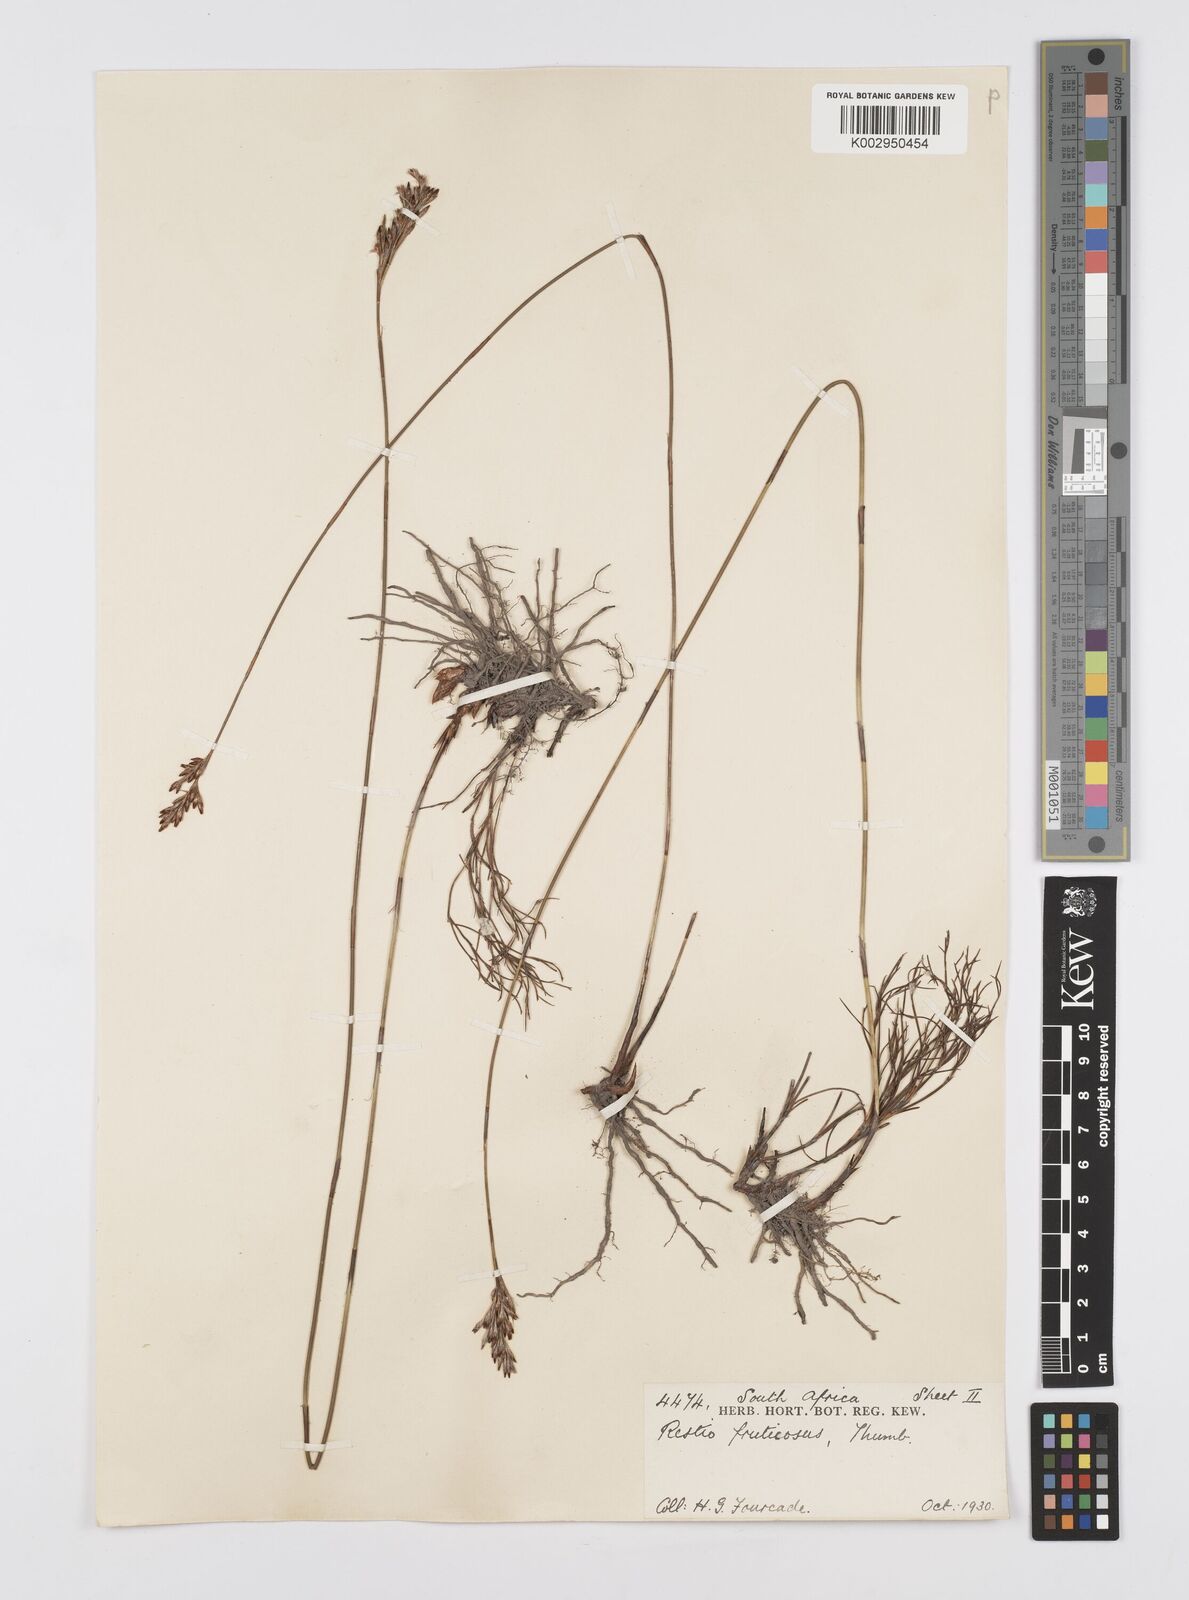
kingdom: Plantae
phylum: Tracheophyta
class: Liliopsida
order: Poales
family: Restionaceae
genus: Rhodocoma
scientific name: Rhodocoma fruticosa
